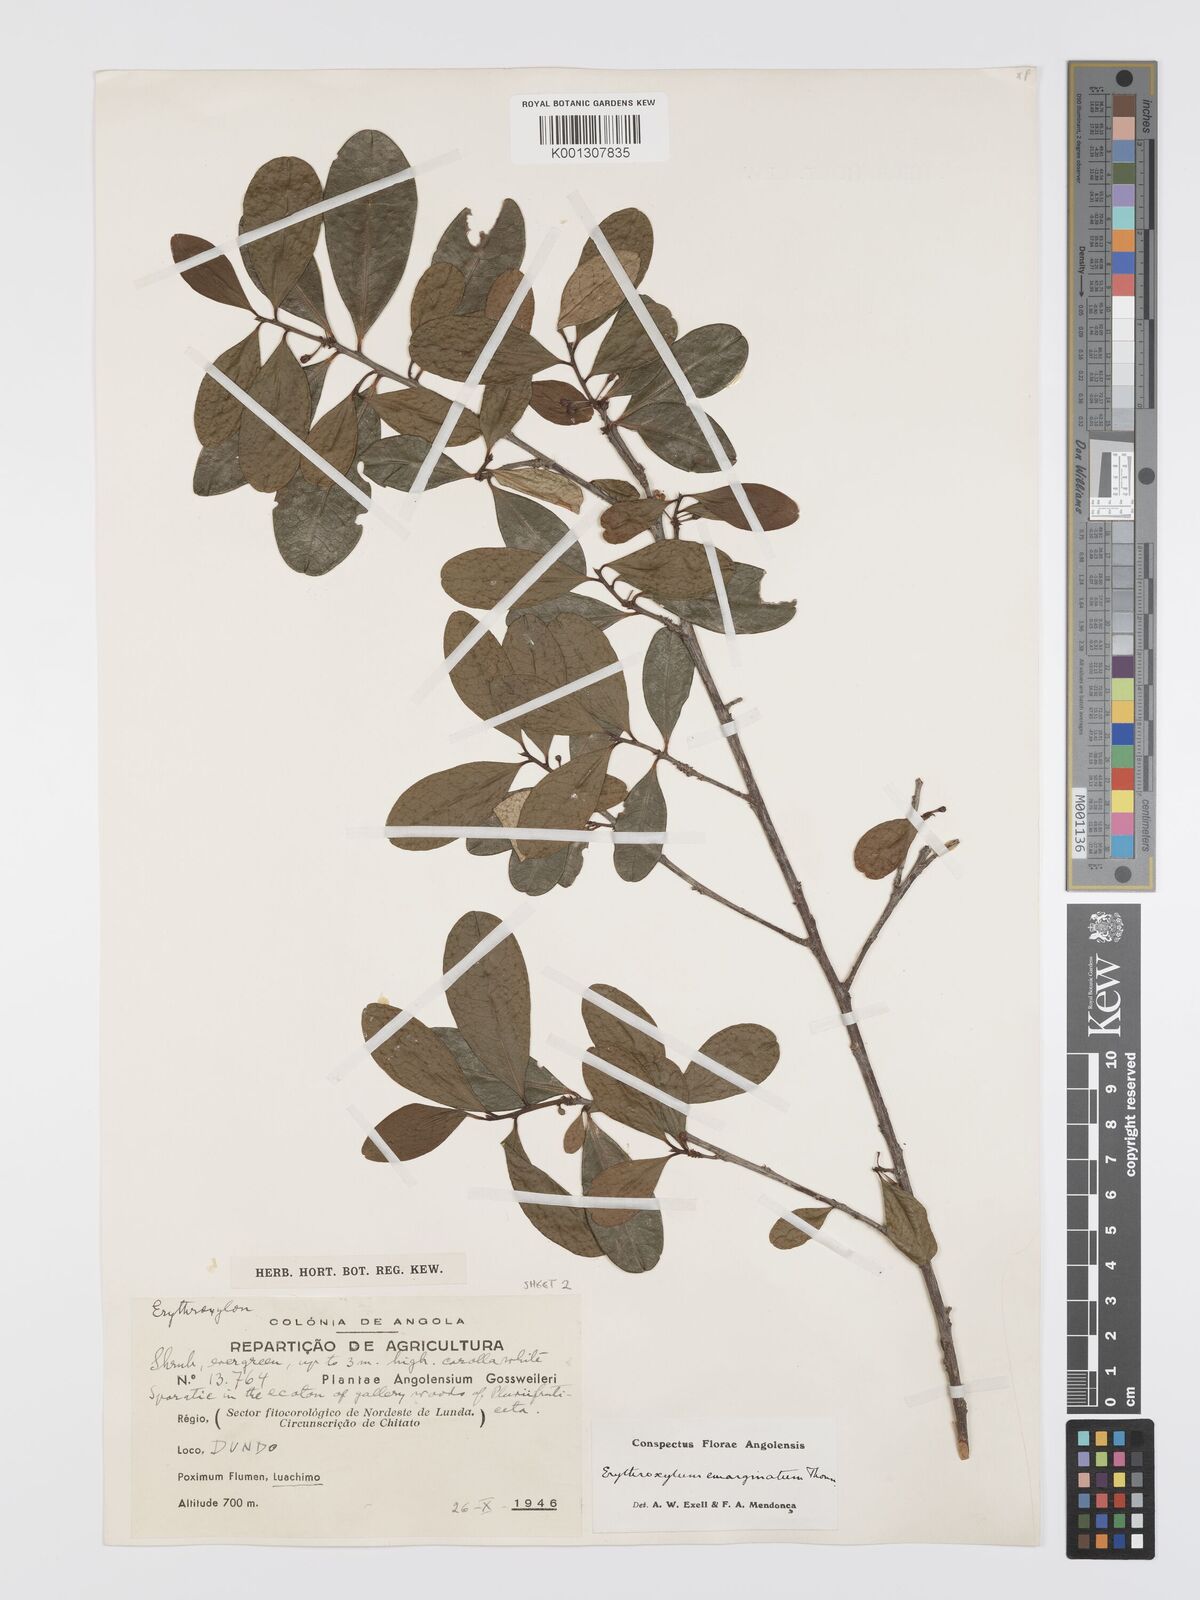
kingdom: Plantae
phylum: Tracheophyta
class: Magnoliopsida
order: Malpighiales
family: Erythroxylaceae
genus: Erythroxylum
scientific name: Erythroxylum emarginatum
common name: African coca-tree
